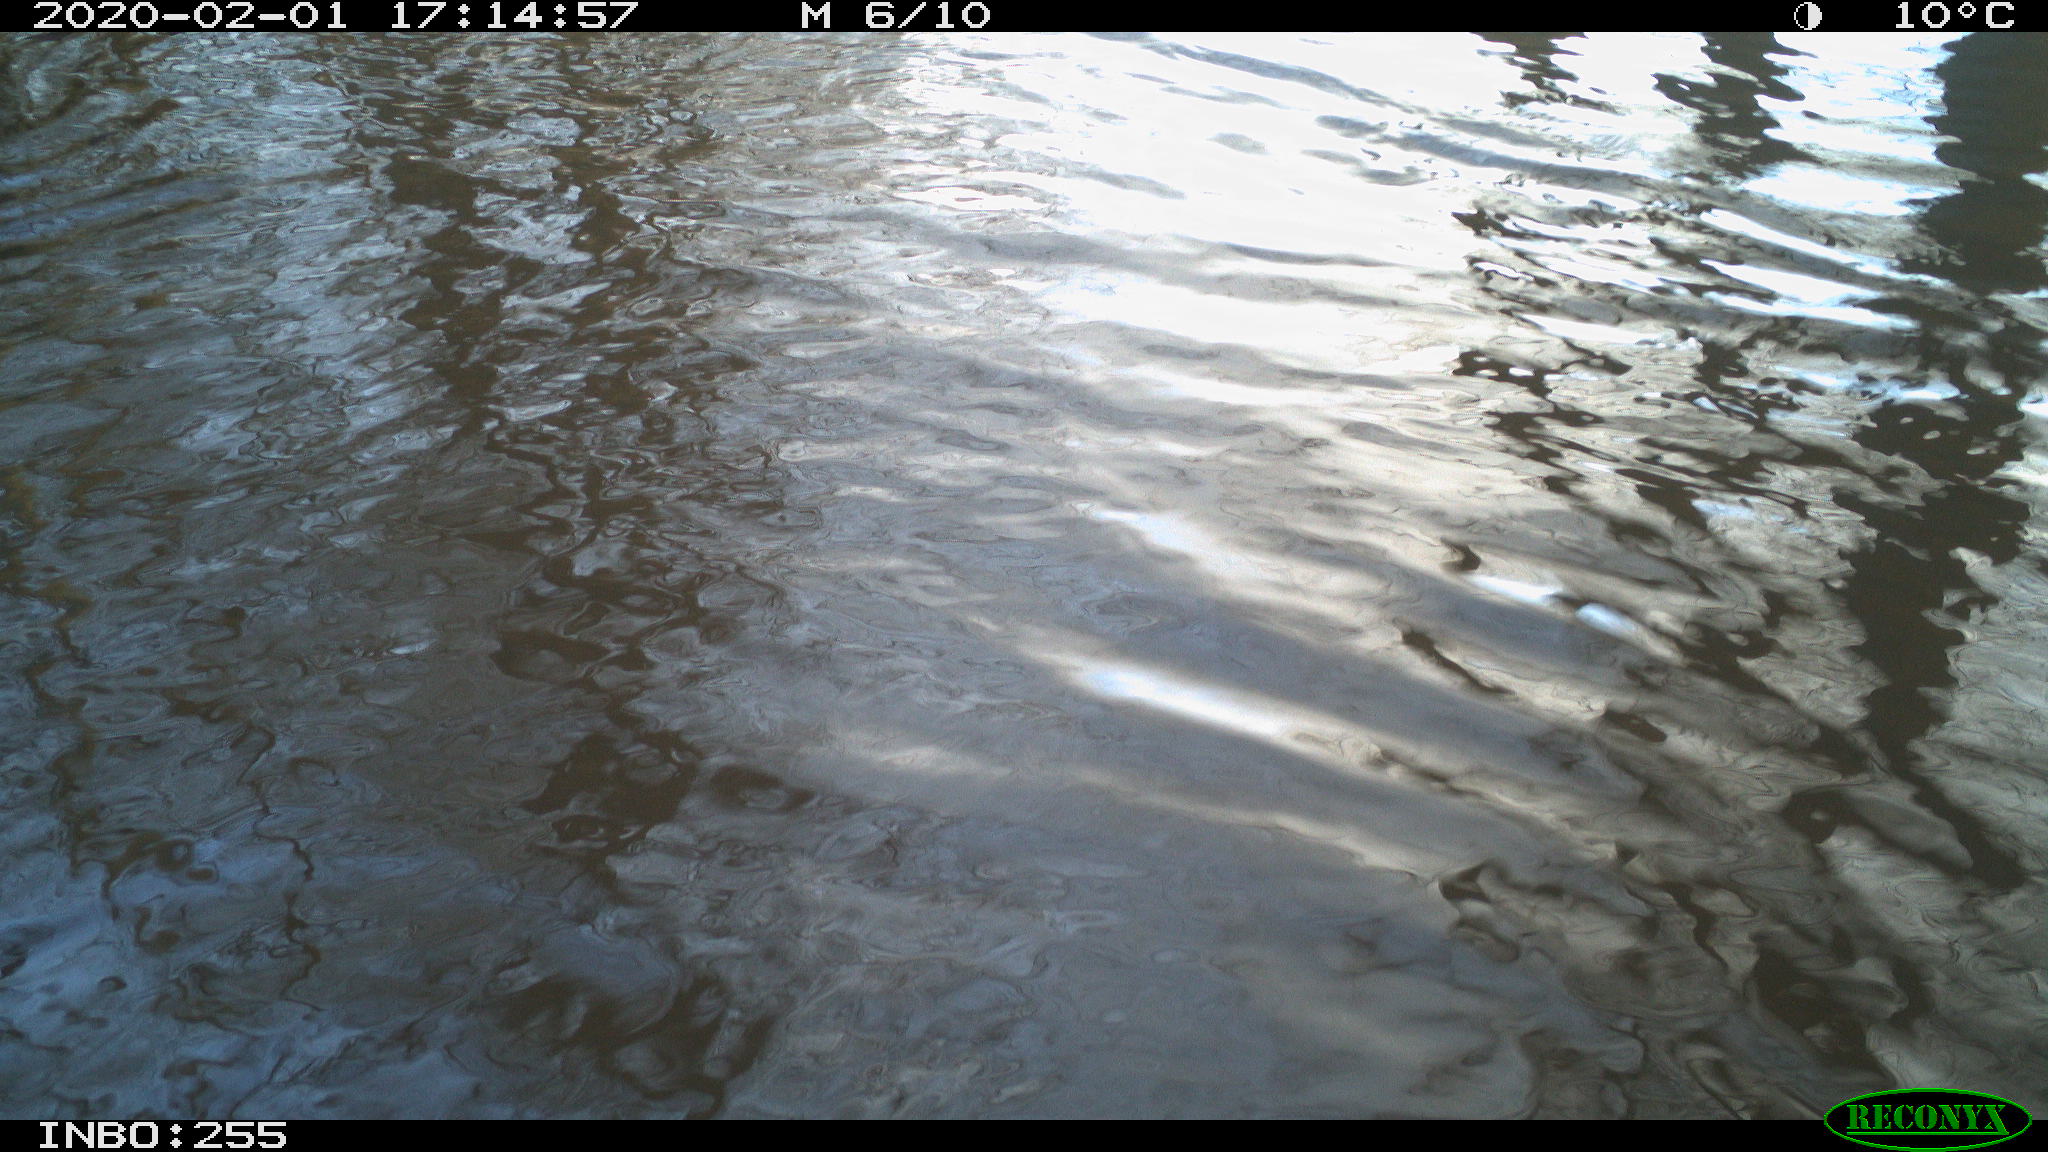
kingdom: Animalia
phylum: Chordata
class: Aves
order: Gruiformes
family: Rallidae
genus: Gallinula
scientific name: Gallinula chloropus
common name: Common moorhen
